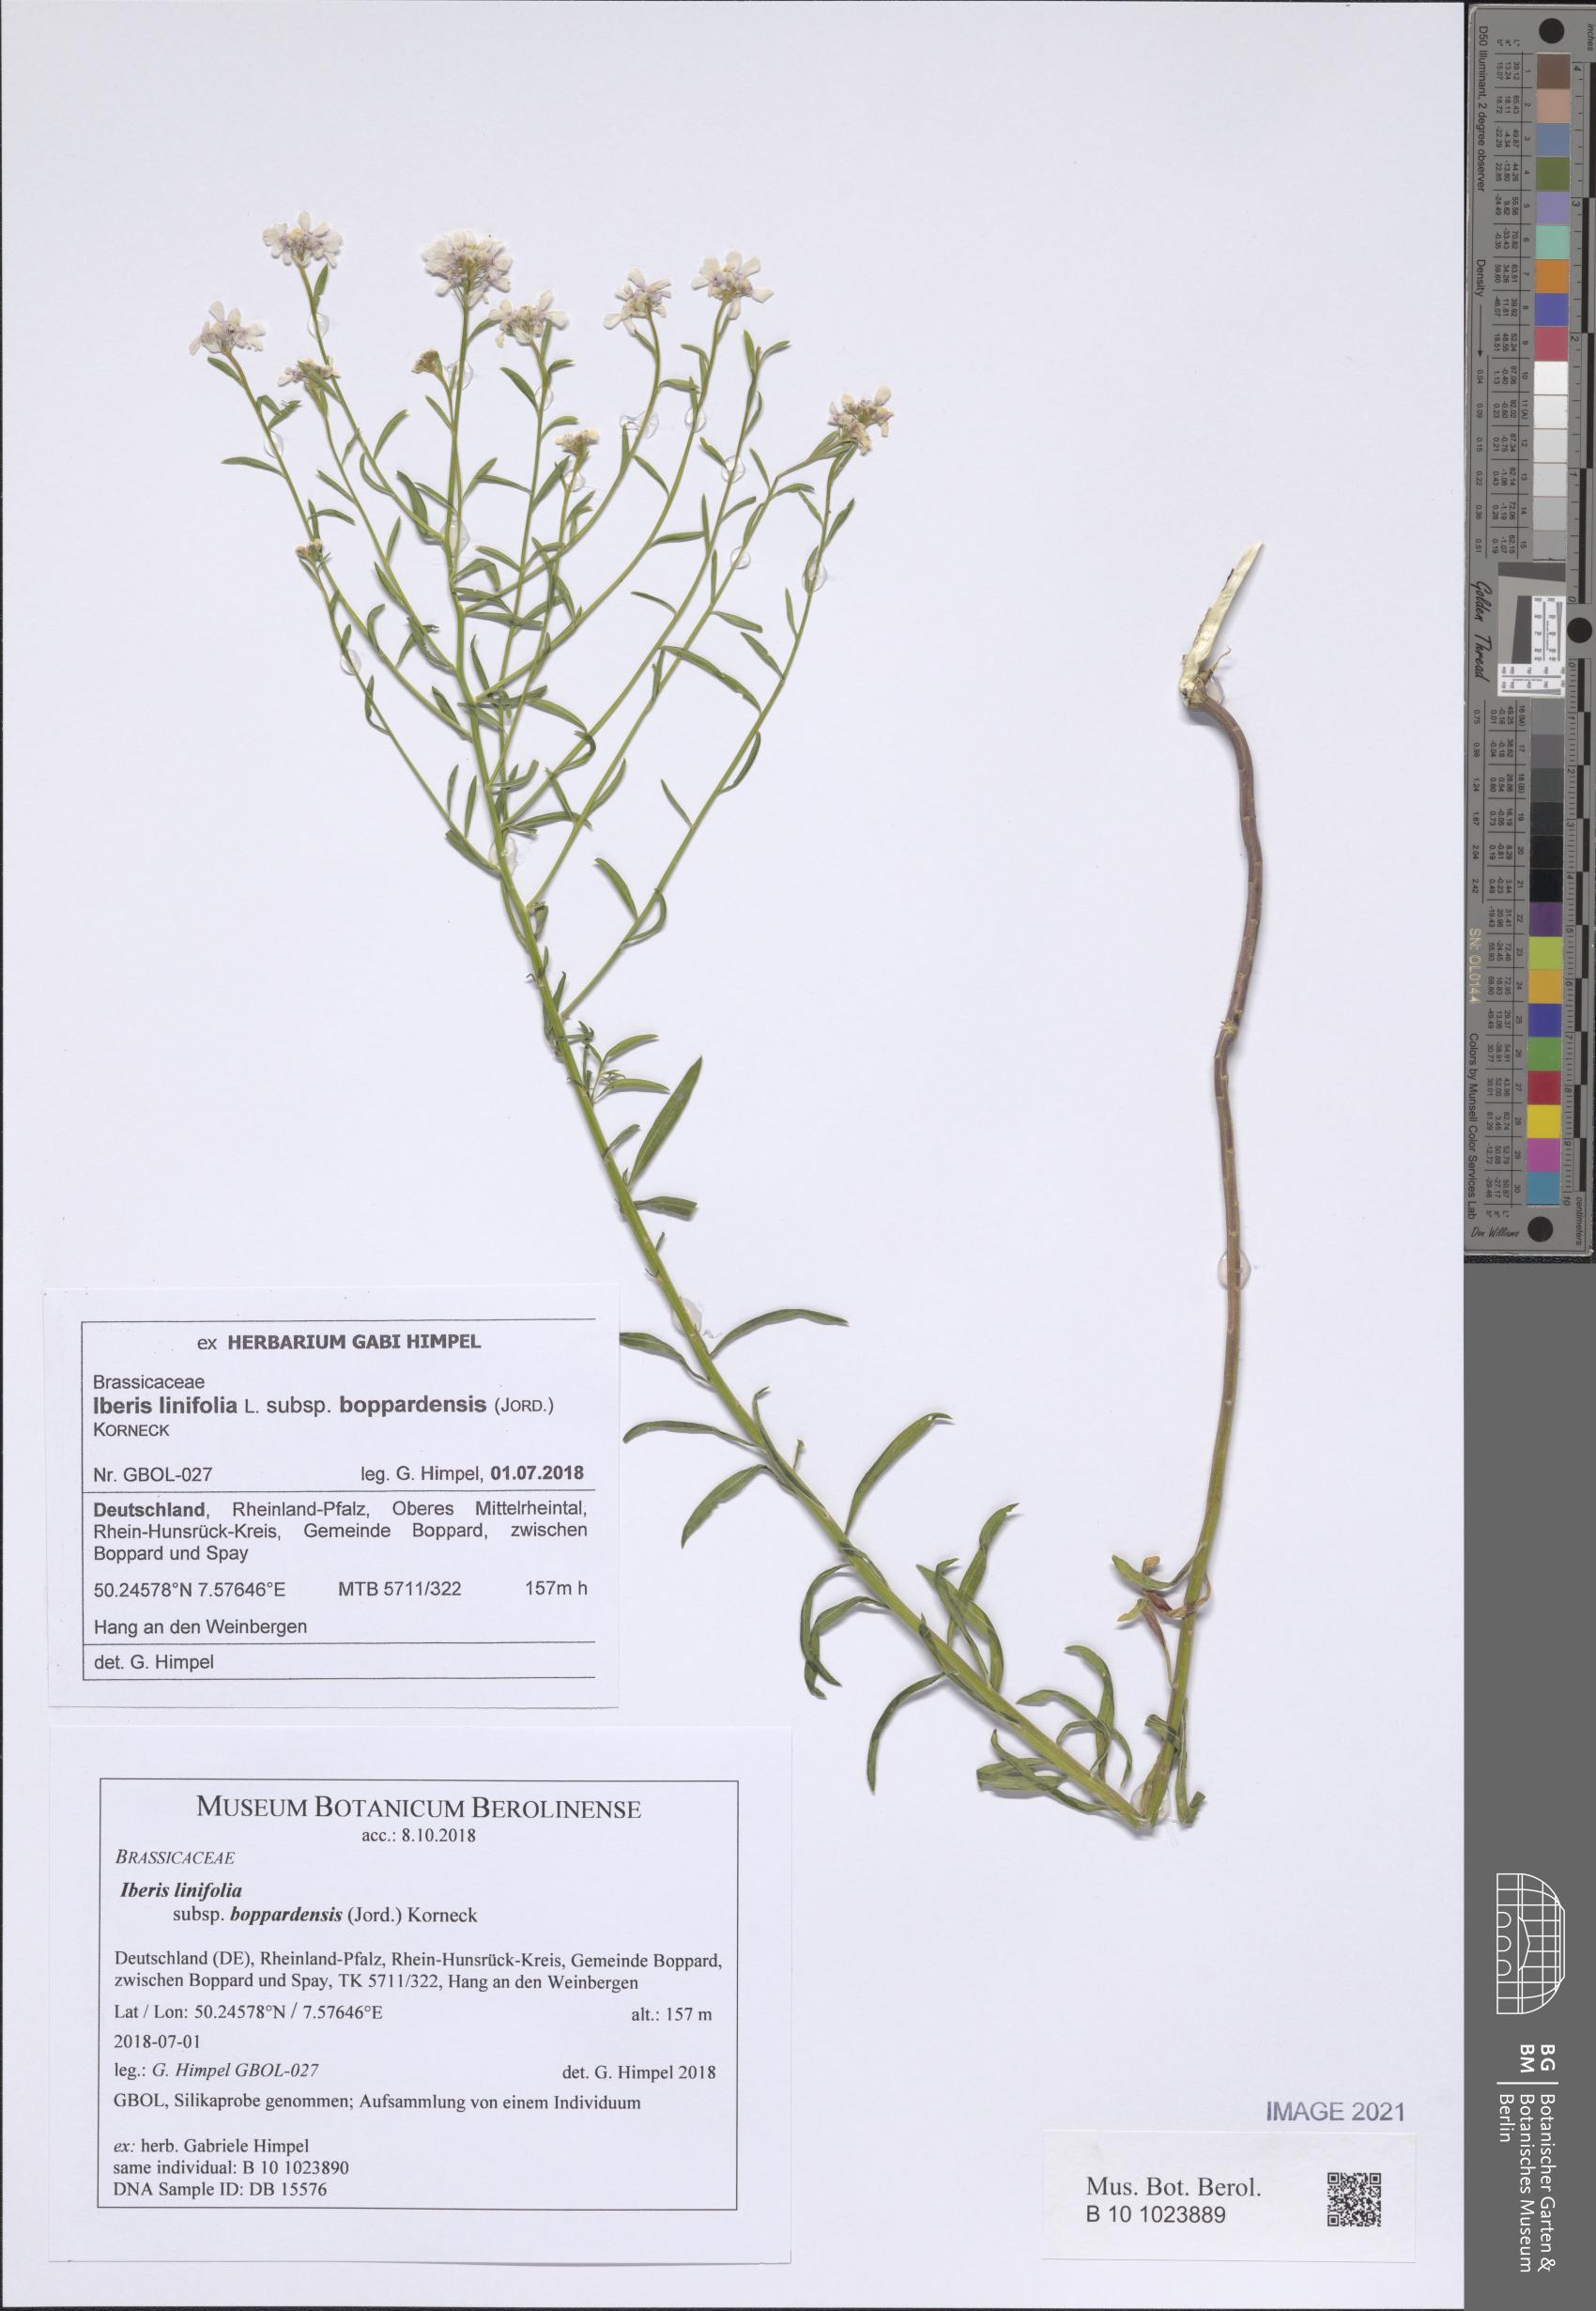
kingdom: Plantae
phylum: Tracheophyta
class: Magnoliopsida
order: Brassicales
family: Brassicaceae
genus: Iberis
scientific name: Iberis linifolia
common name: Candytuft
